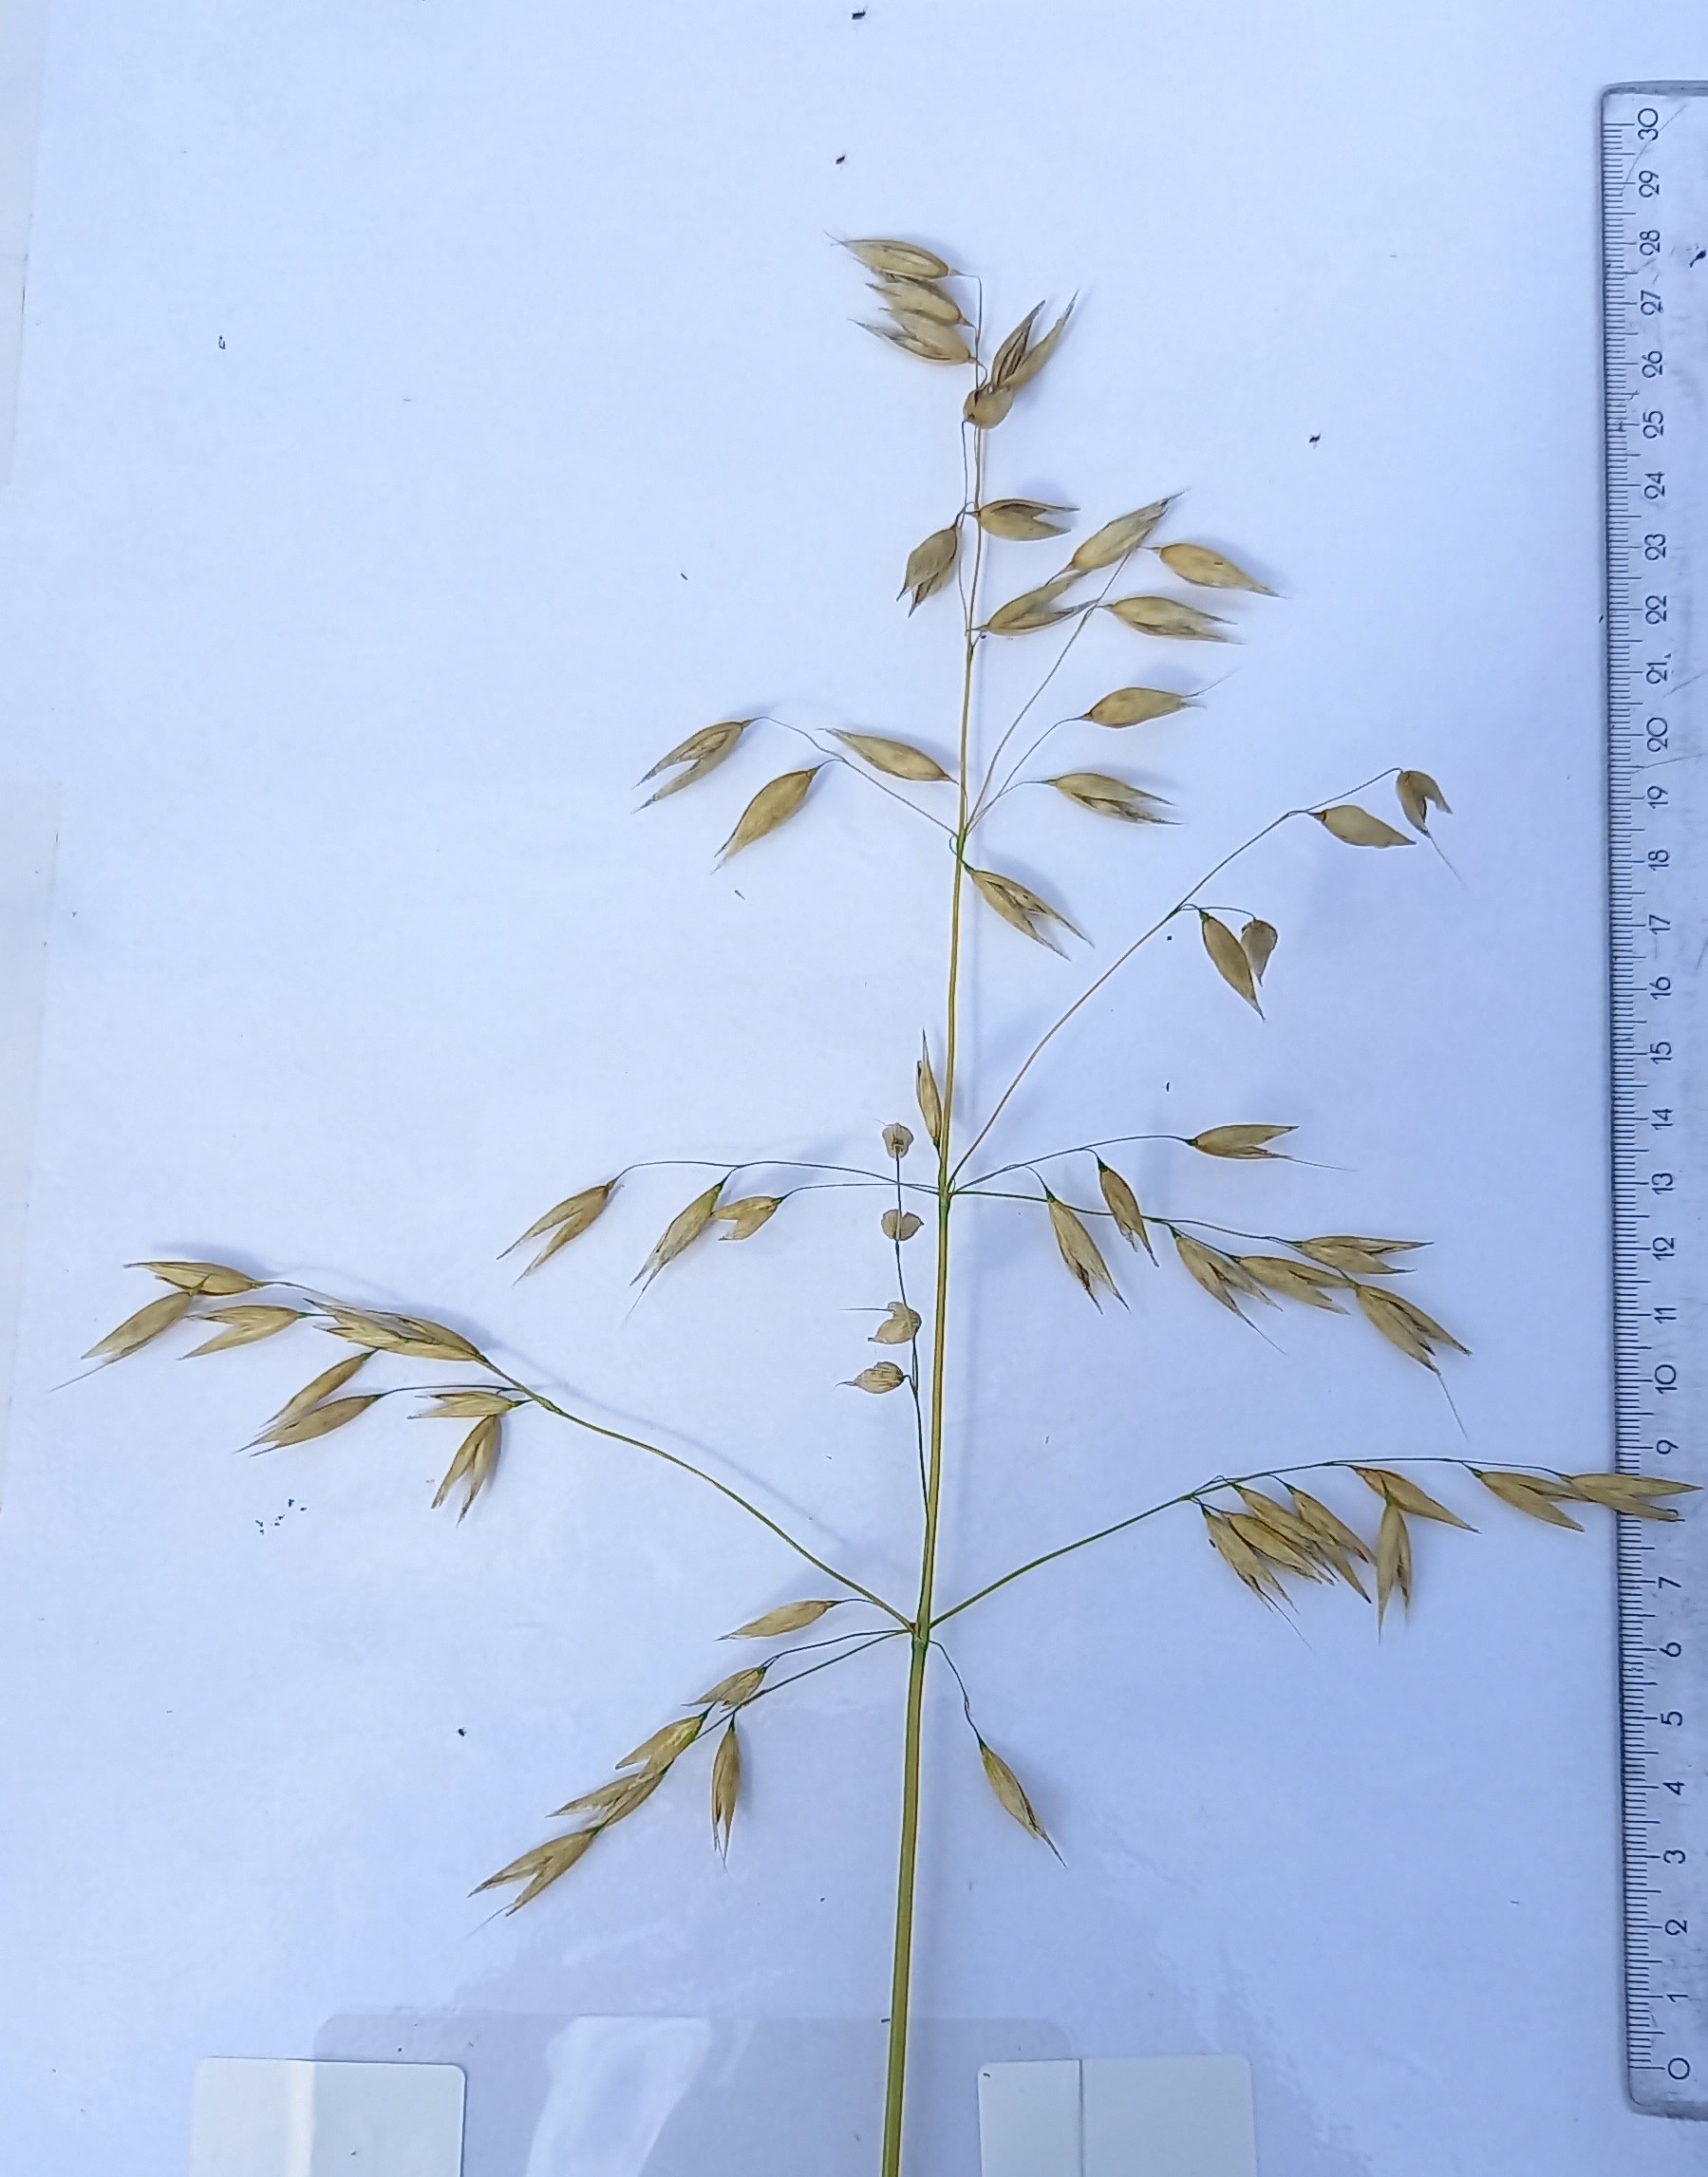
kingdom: Plantae
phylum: Tracheophyta
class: Liliopsida
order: Poales
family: Poaceae
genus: Avena
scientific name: Avena sativa
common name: Oat
